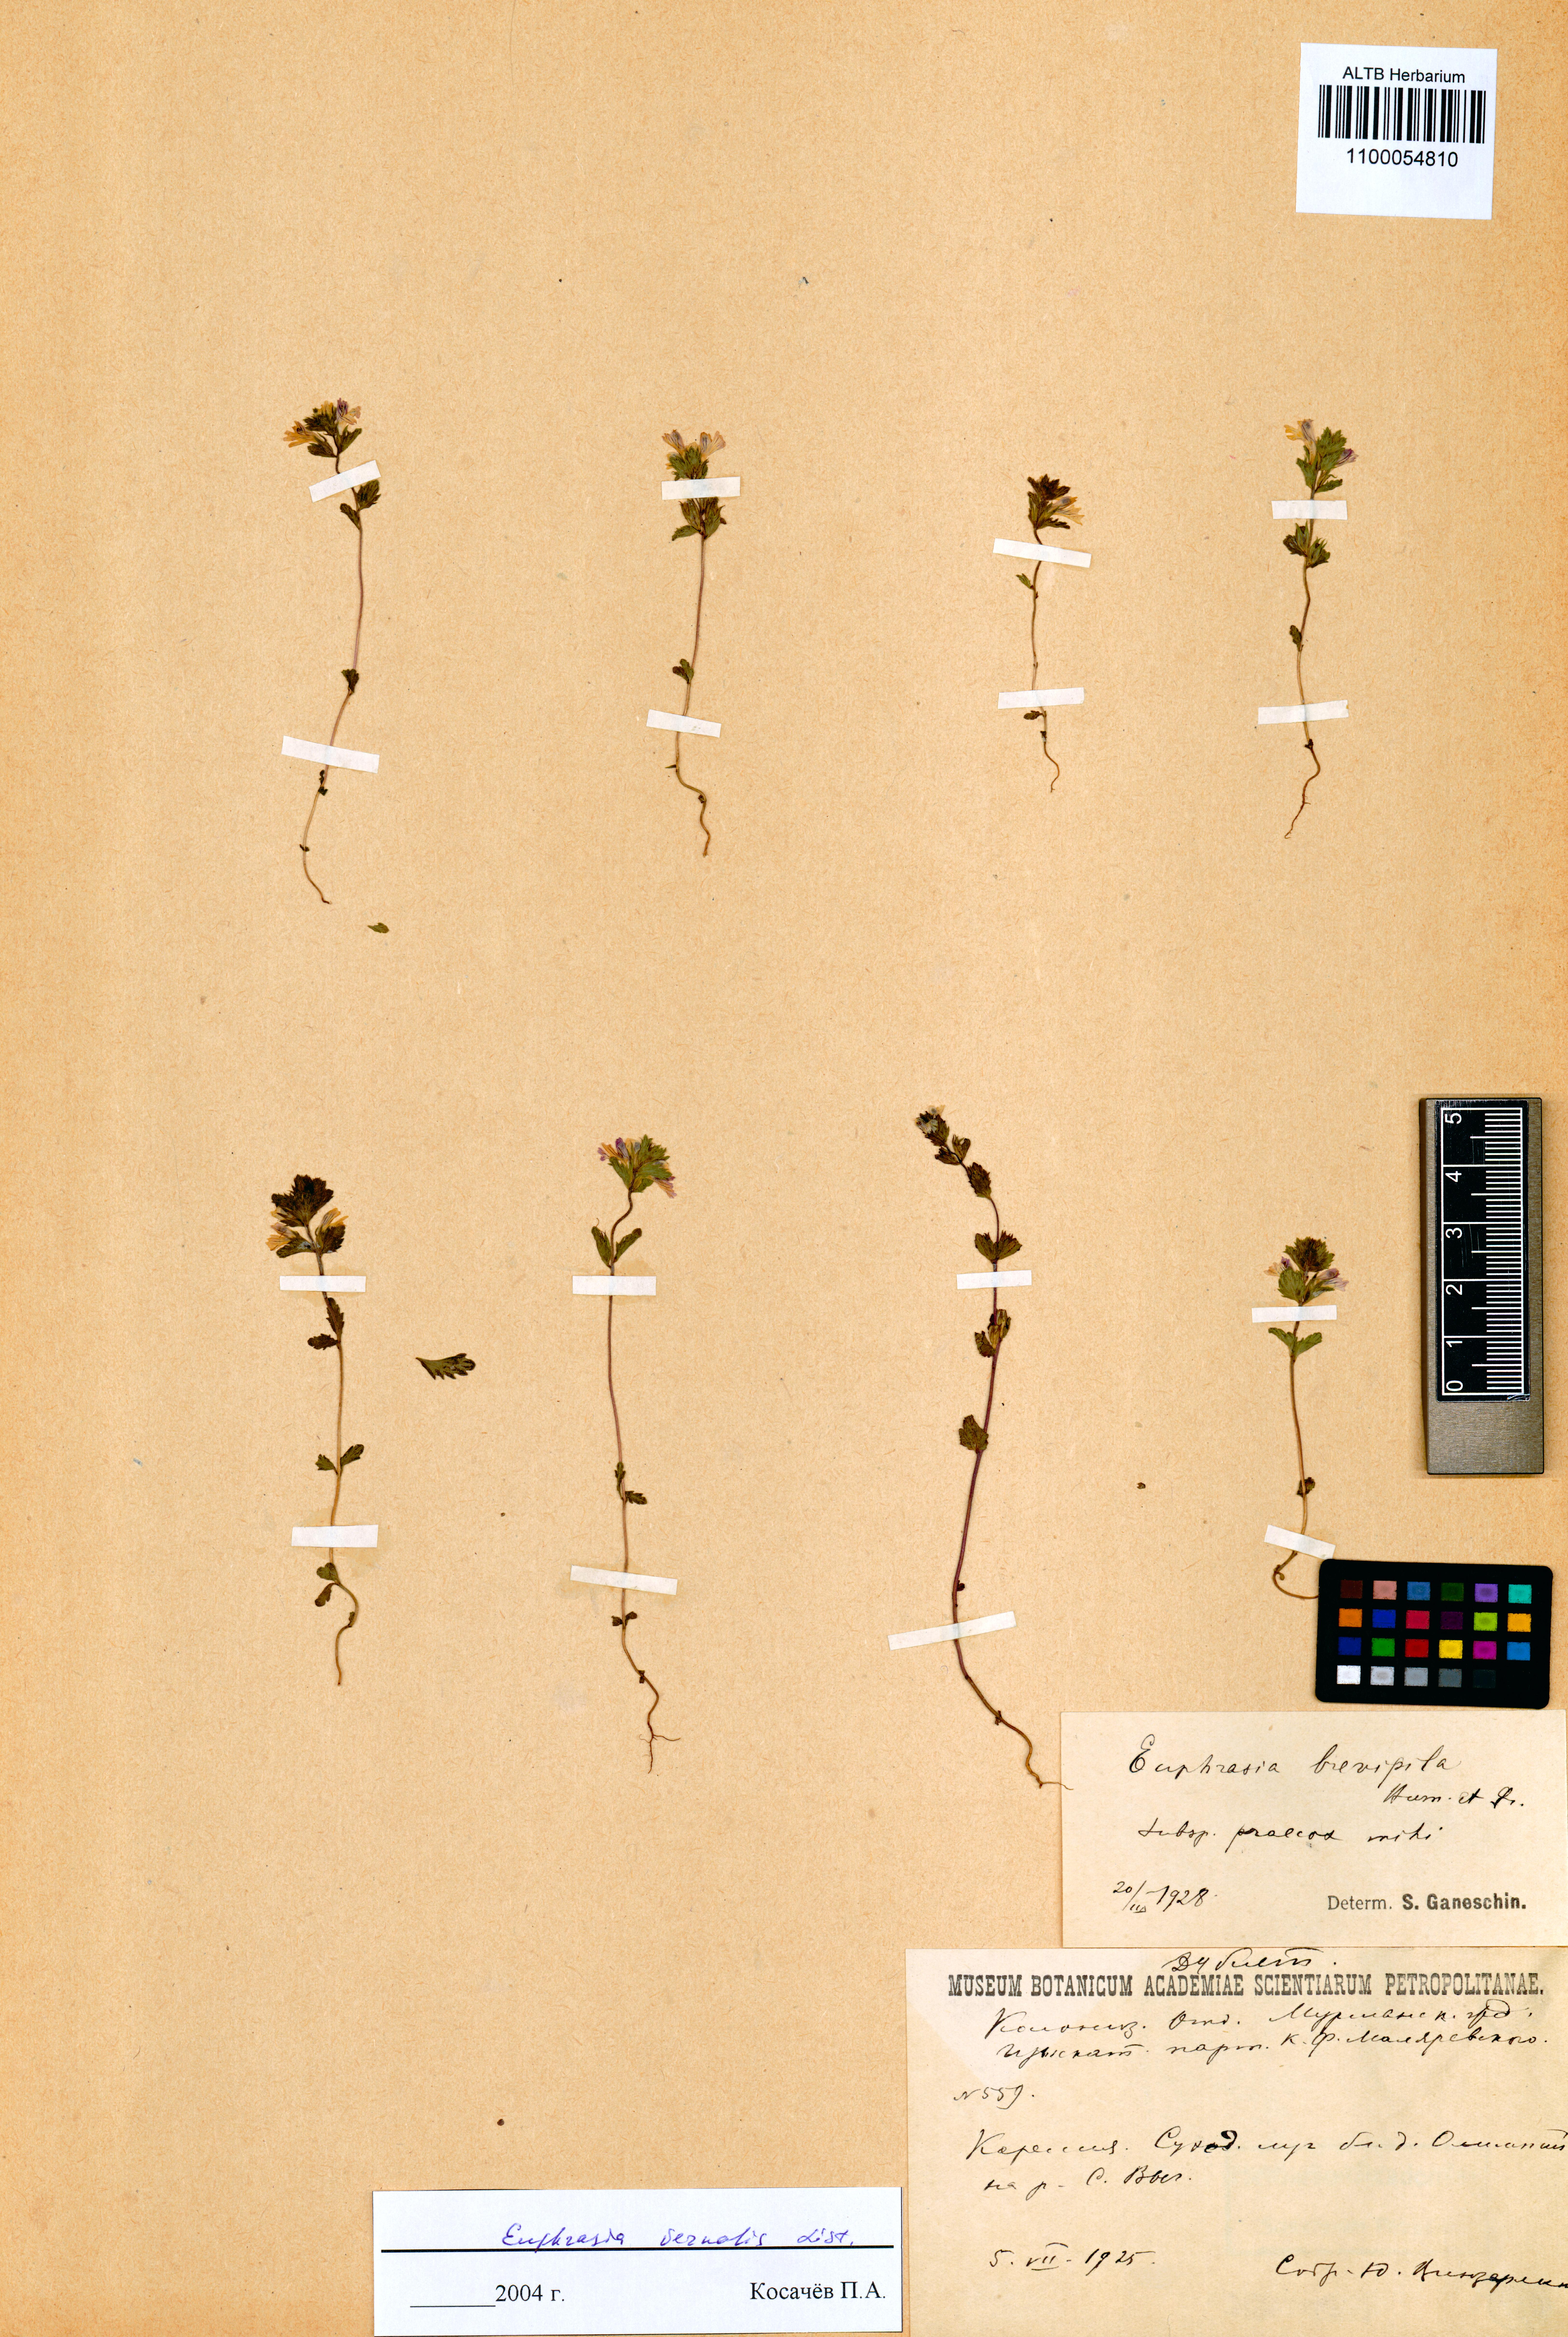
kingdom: Plantae
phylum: Tracheophyta
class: Magnoliopsida
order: Lamiales
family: Orobanchaceae
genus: Euphrasia
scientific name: Euphrasia vernalis
